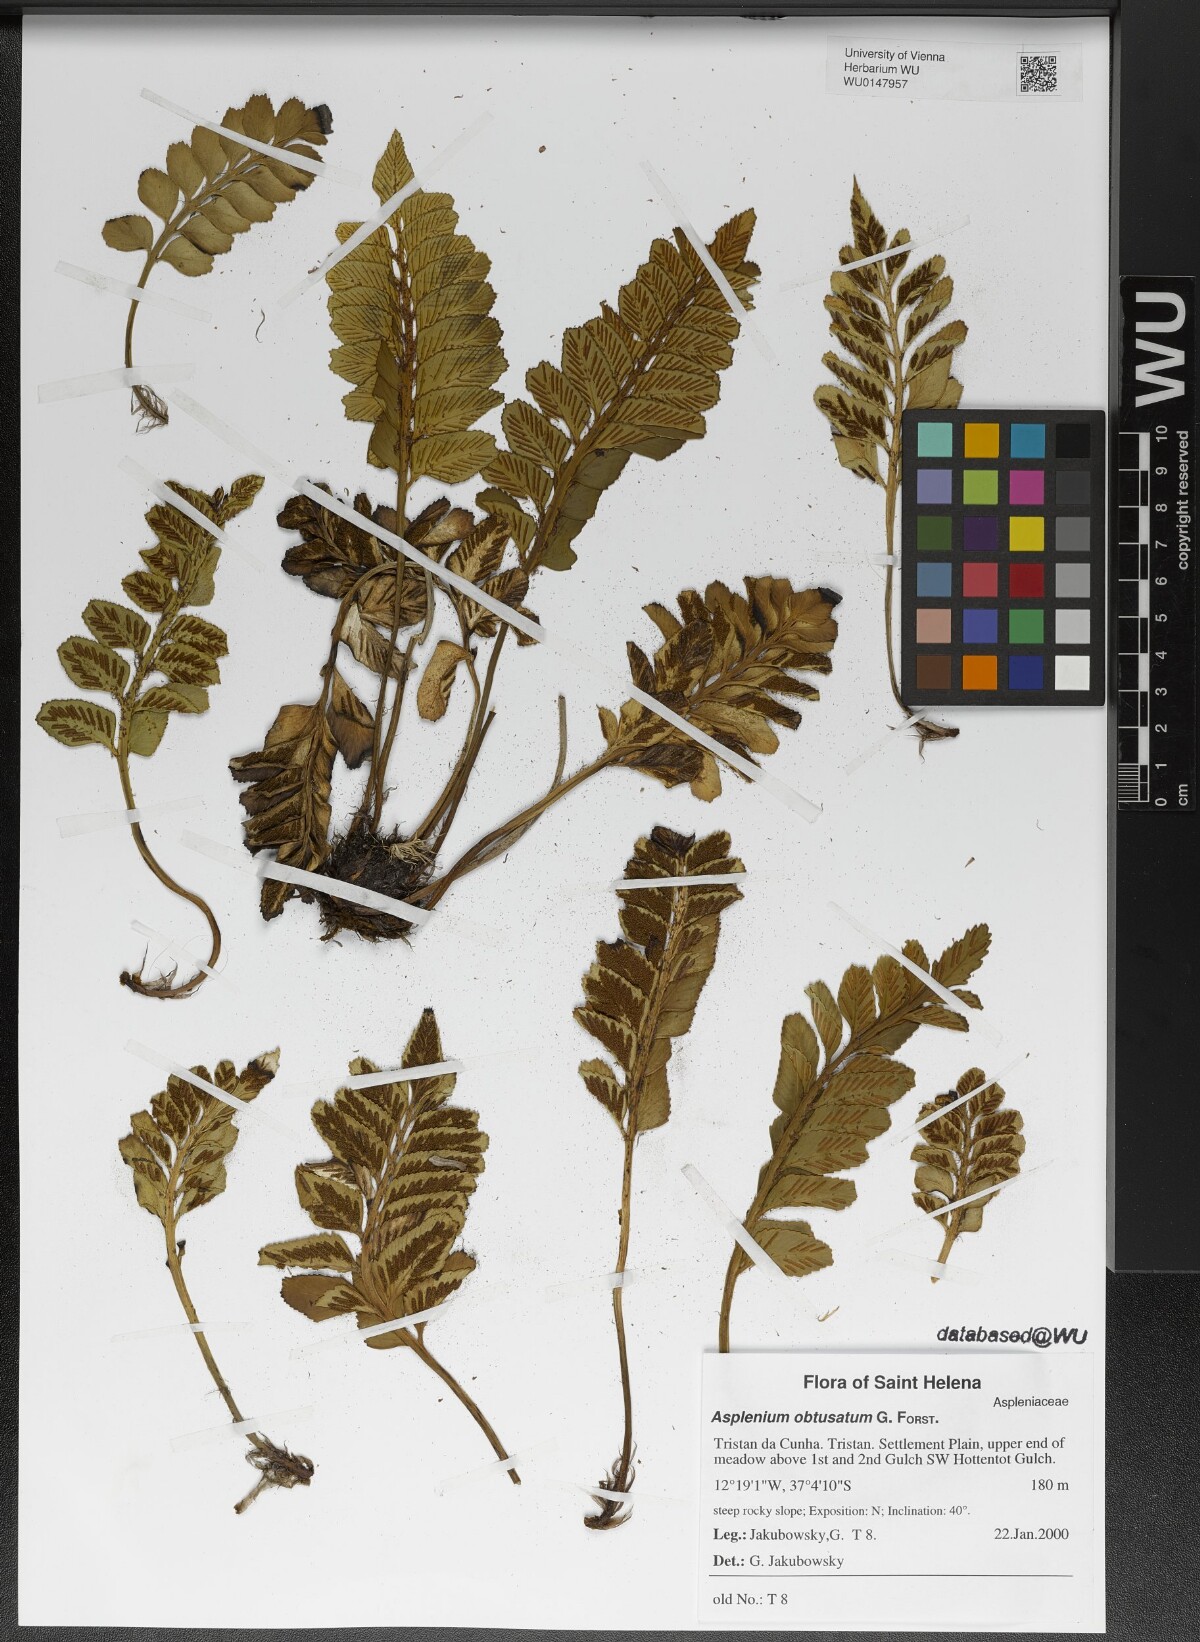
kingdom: Plantae
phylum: Tracheophyta
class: Polypodiopsida
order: Polypodiales
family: Aspleniaceae
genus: Asplenium
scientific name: Asplenium obtusatum
